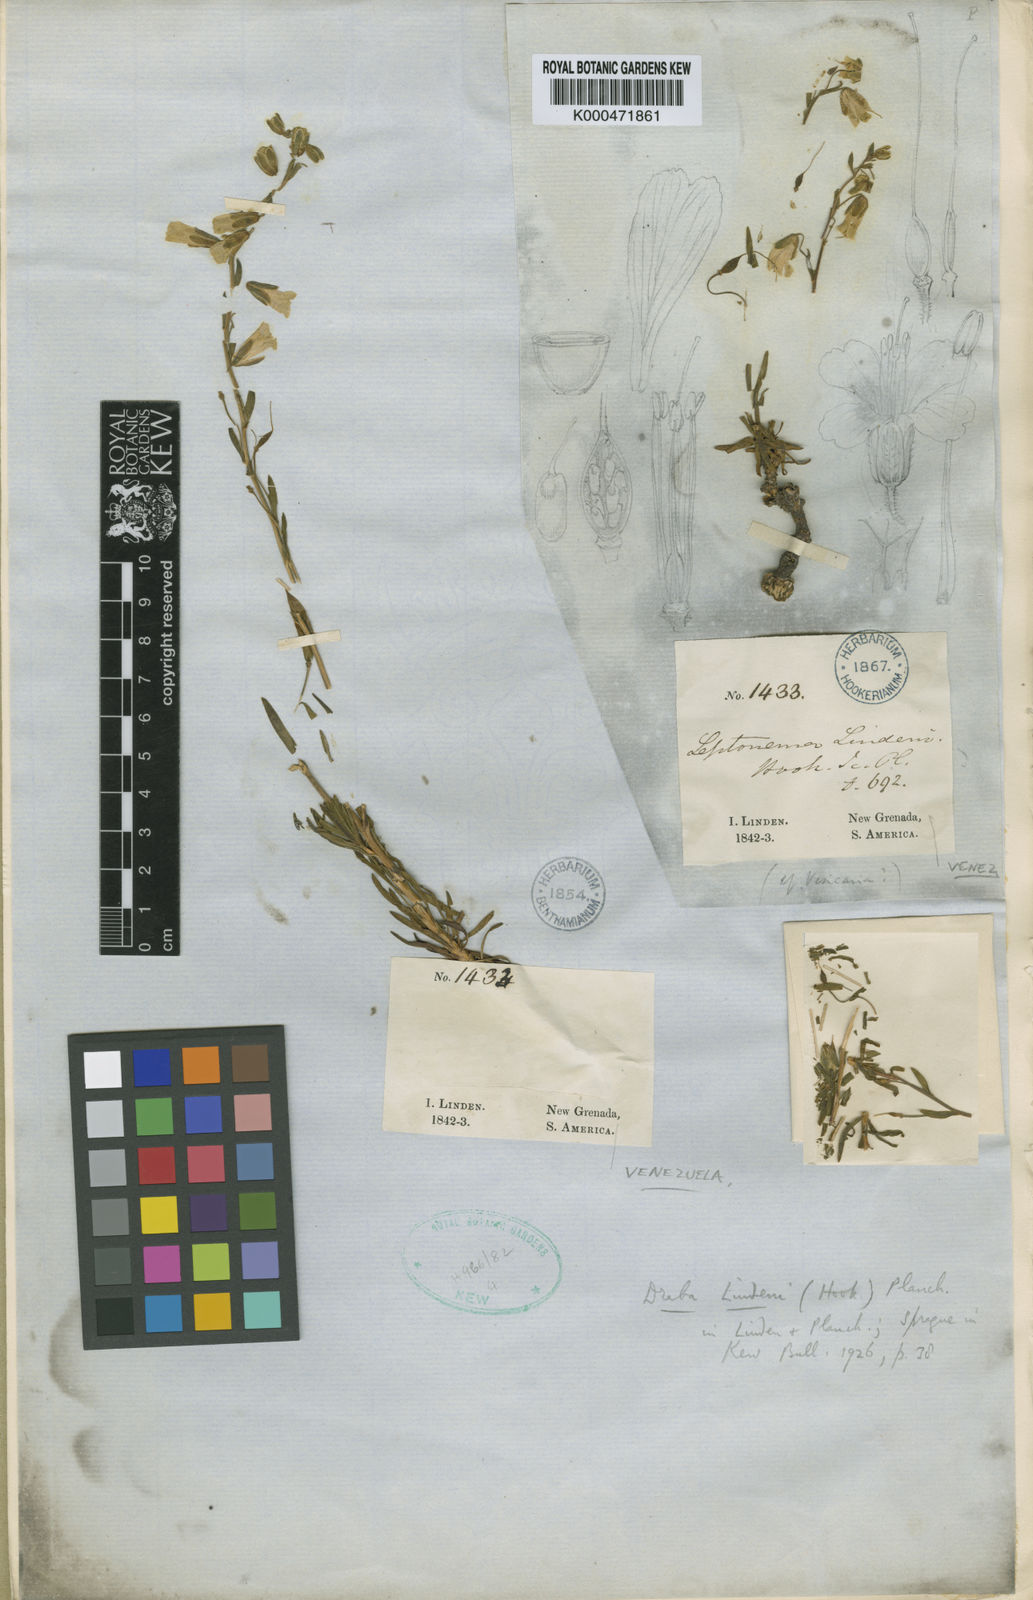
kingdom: Plantae
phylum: Tracheophyta
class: Magnoliopsida
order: Brassicales
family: Brassicaceae
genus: Draba
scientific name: Draba
